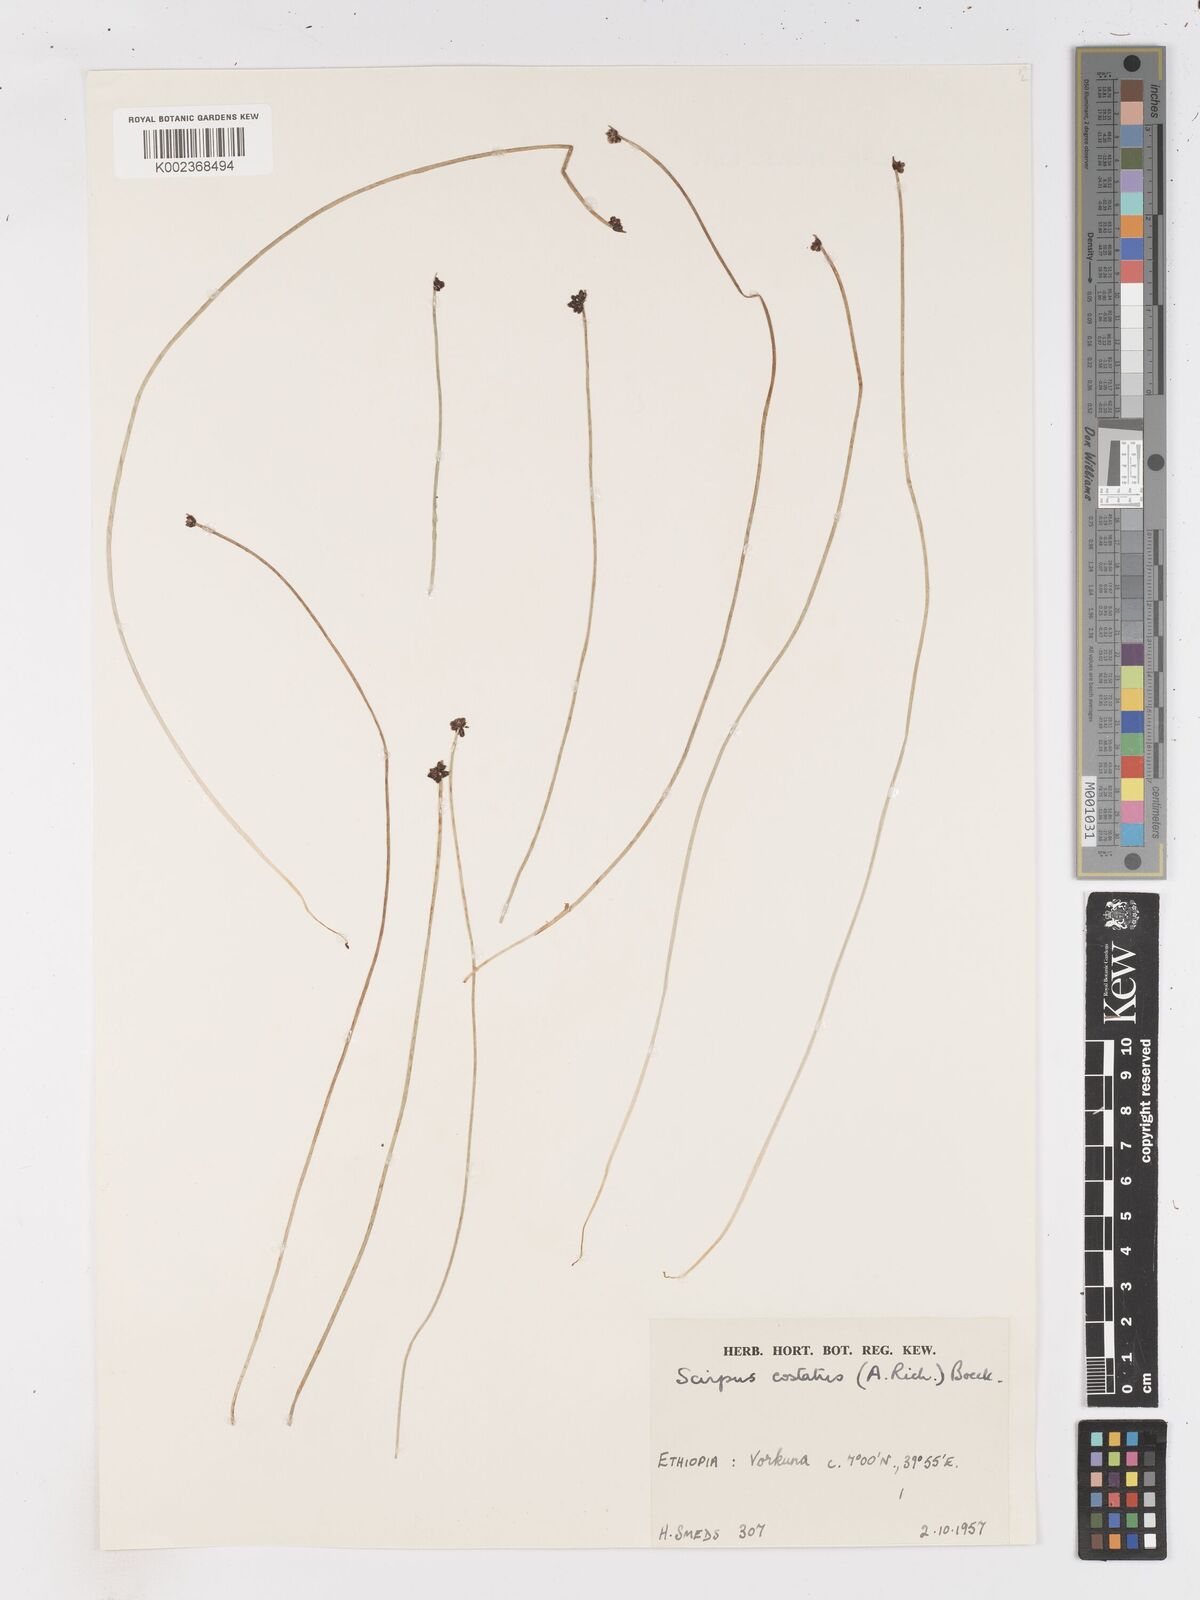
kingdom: Plantae
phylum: Tracheophyta
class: Liliopsida
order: Poales
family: Cyperaceae
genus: Isolepis
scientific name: Isolepis costata
